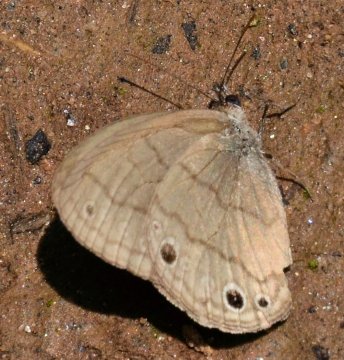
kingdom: Animalia
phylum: Arthropoda
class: Insecta
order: Lepidoptera
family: Nymphalidae
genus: Hermeuptychia
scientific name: Hermeuptychia hermes
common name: Carolina Satyr
